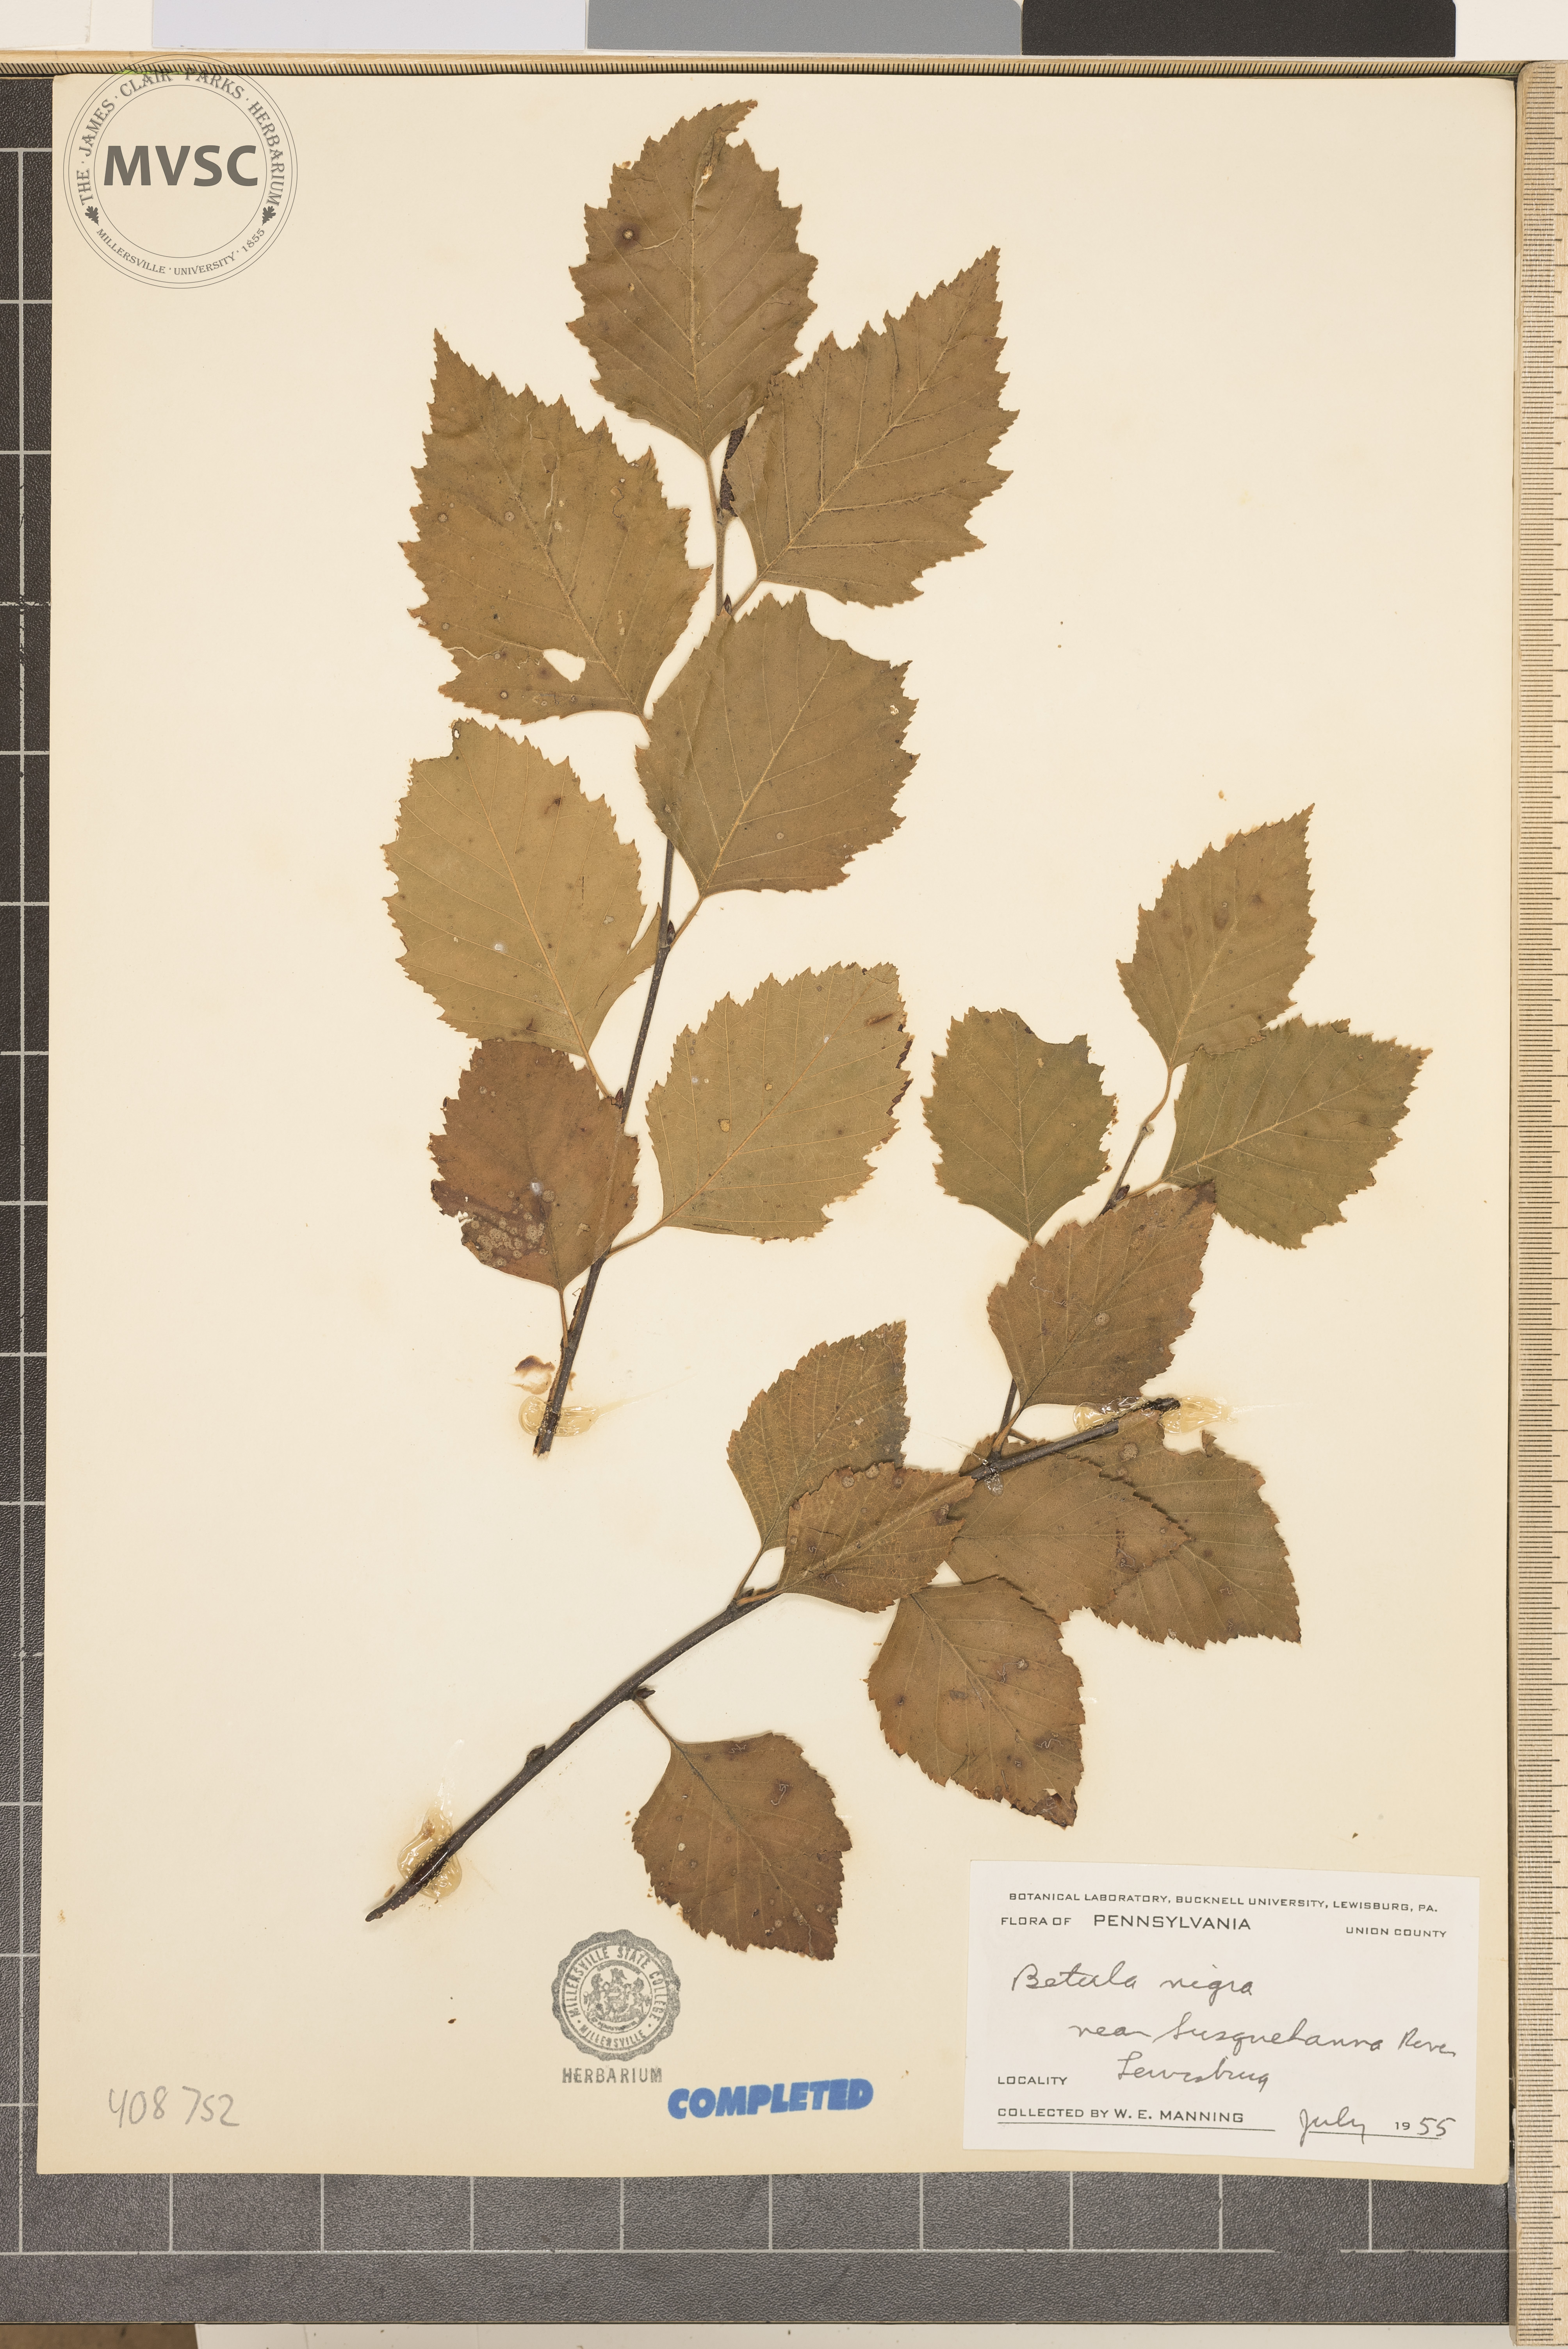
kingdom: Plantae
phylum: Tracheophyta
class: Magnoliopsida
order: Fagales
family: Betulaceae
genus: Betula
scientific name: Betula nigra
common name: river birch
